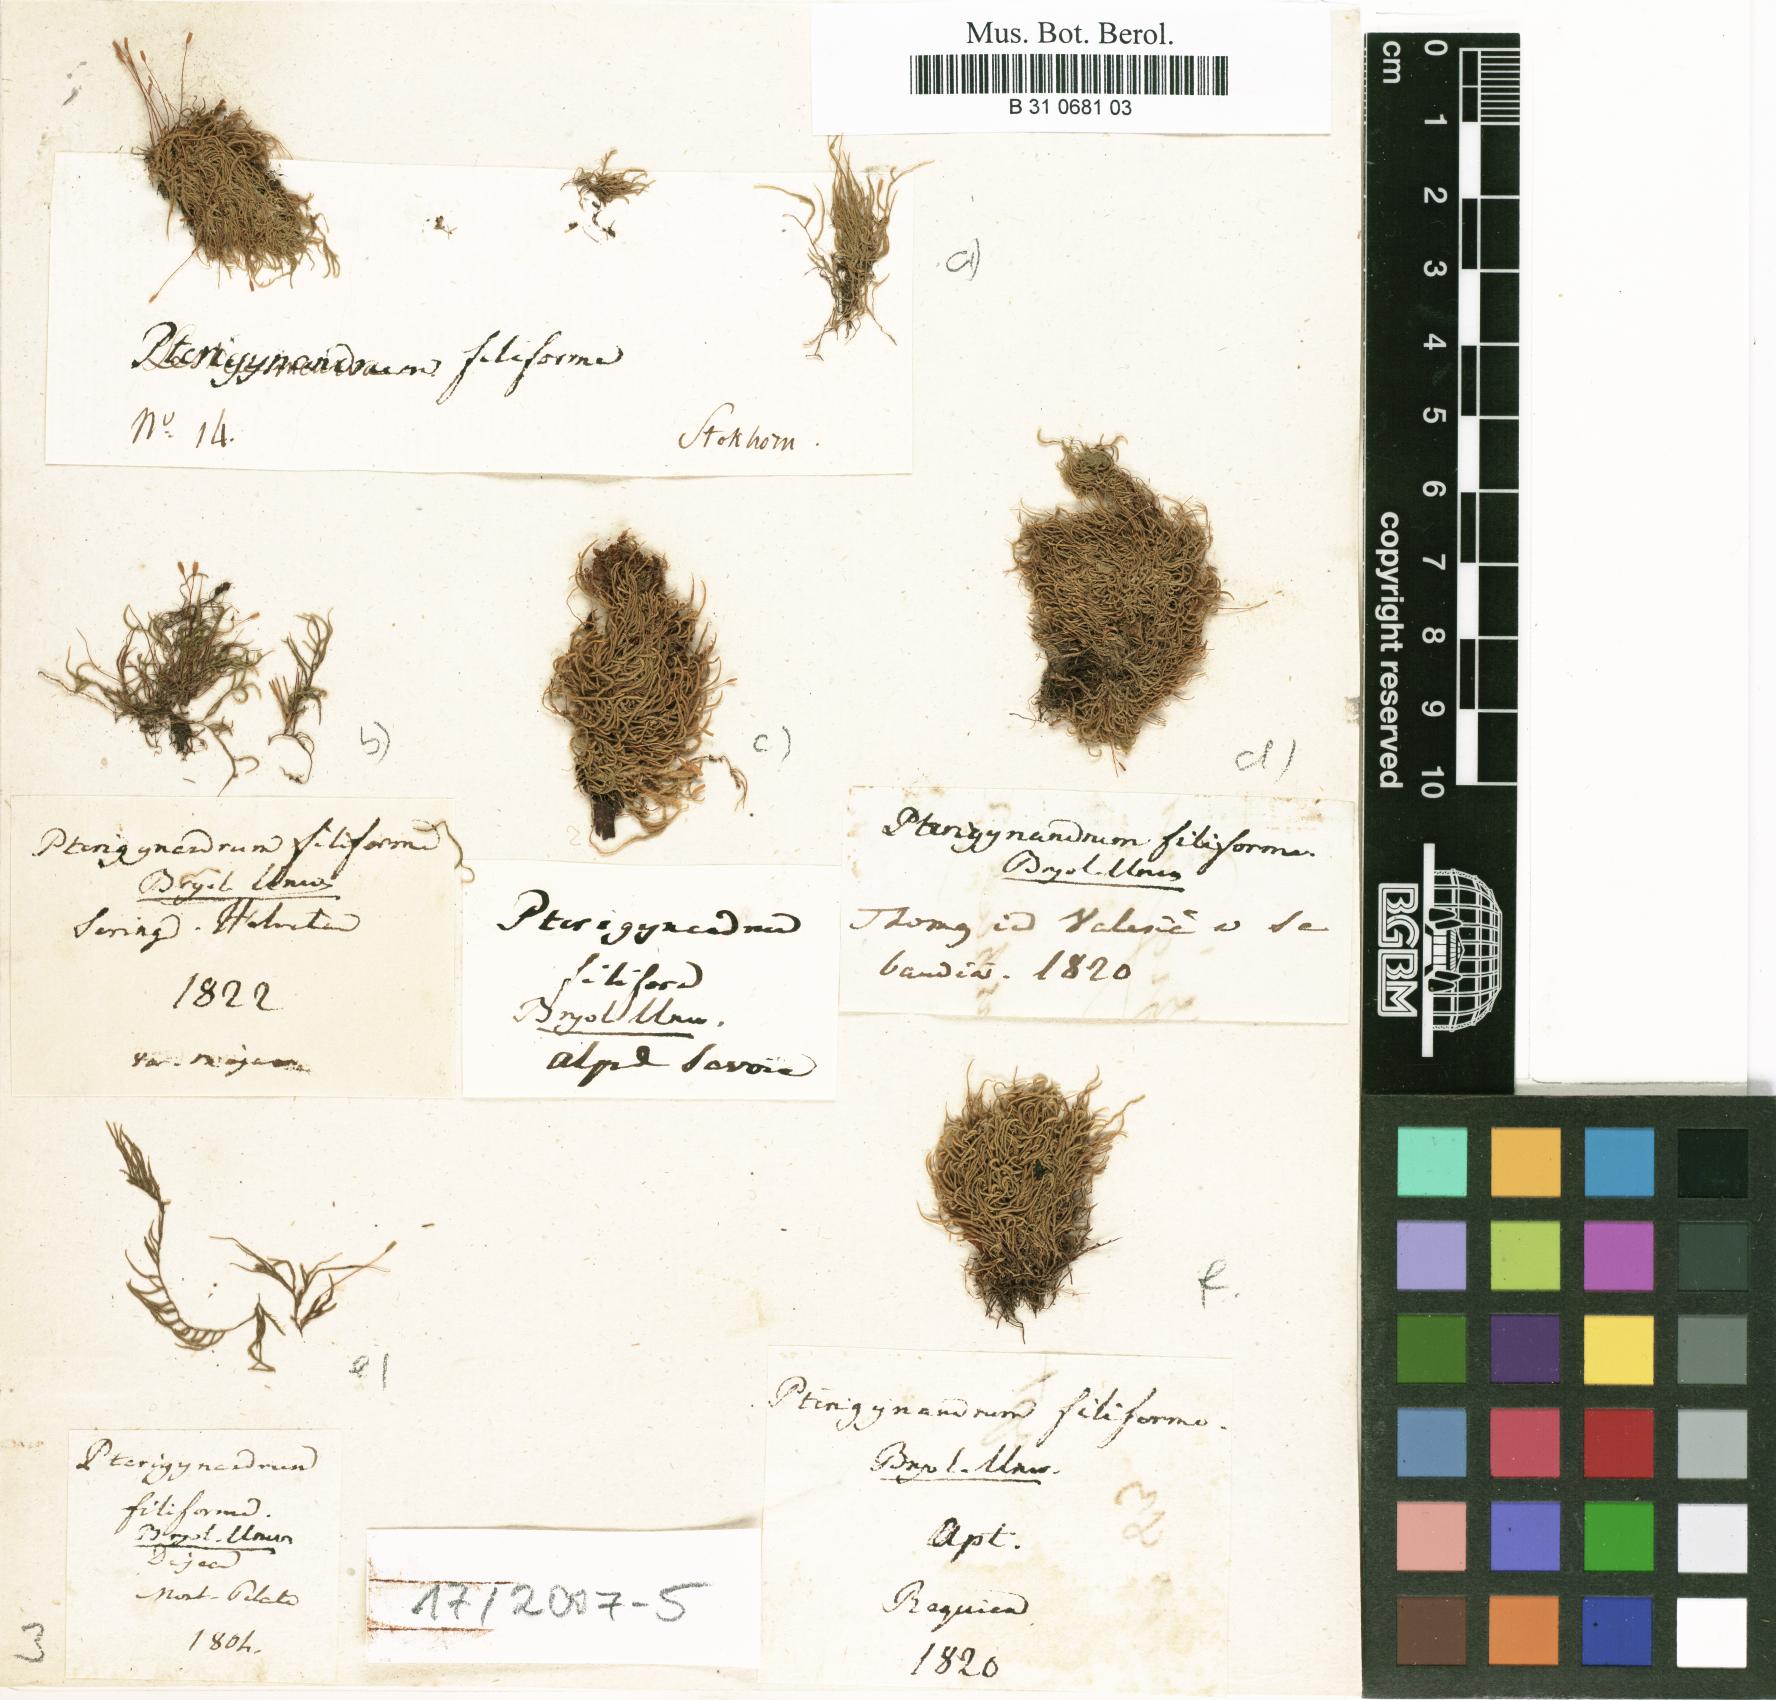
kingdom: Plantae
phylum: Bryophyta
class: Bryopsida
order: Hypnales
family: Pterigynandraceae
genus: Pterigynandrum
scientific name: Pterigynandrum filiforme
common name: Capillary wing moss
